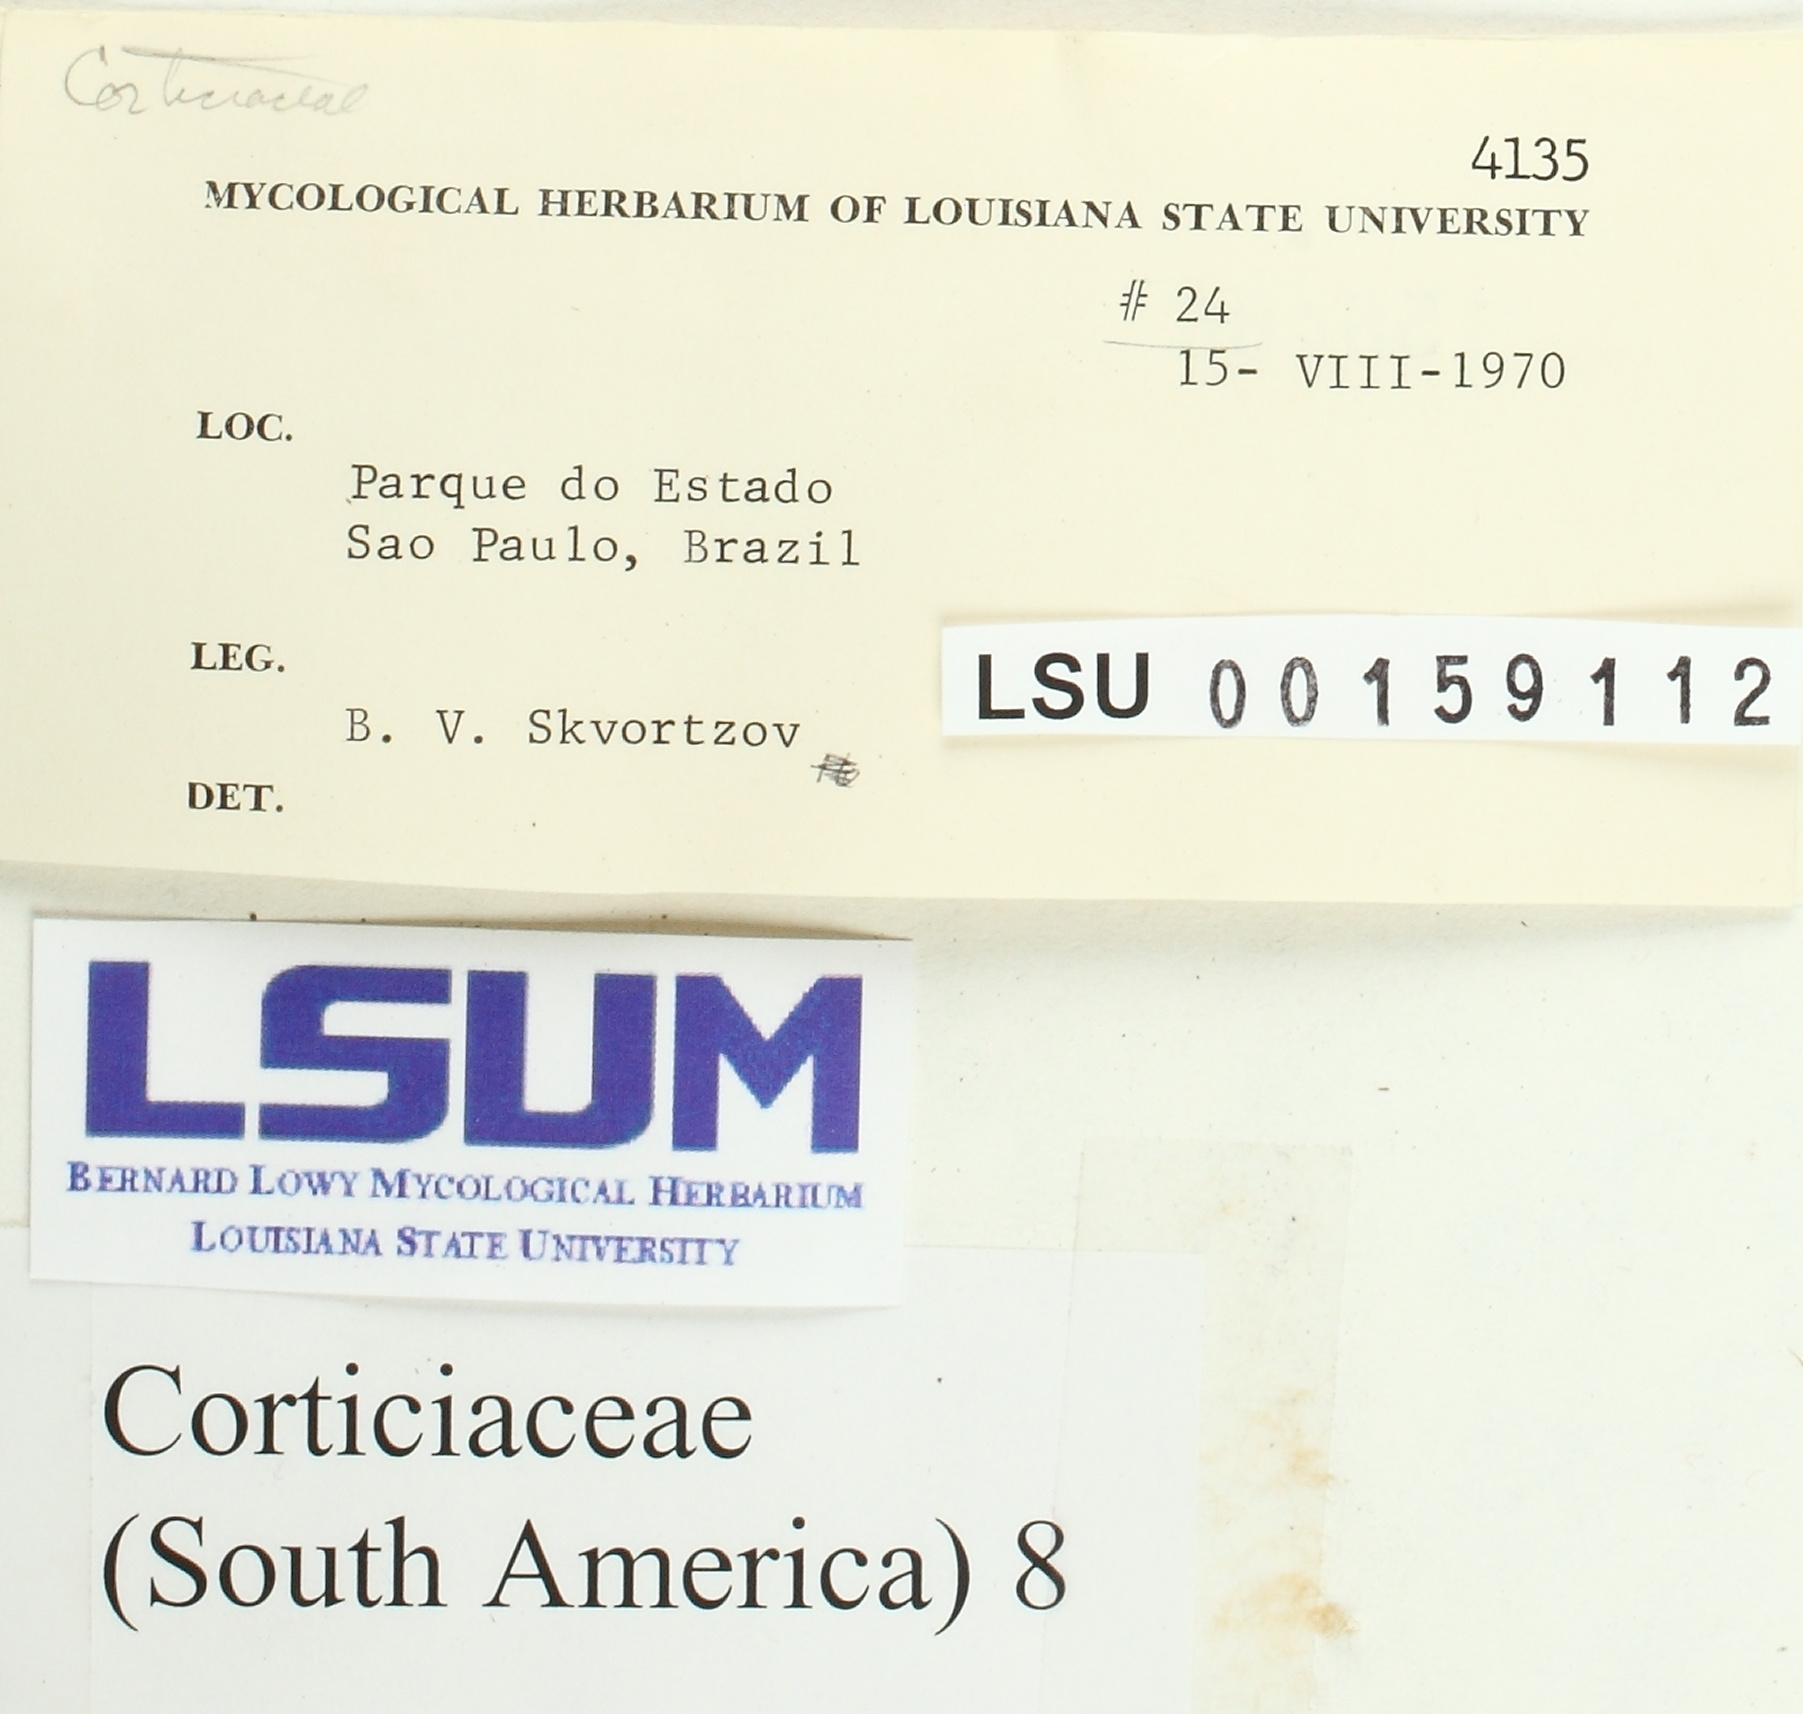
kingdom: Fungi
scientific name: Fungi
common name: Fungi
